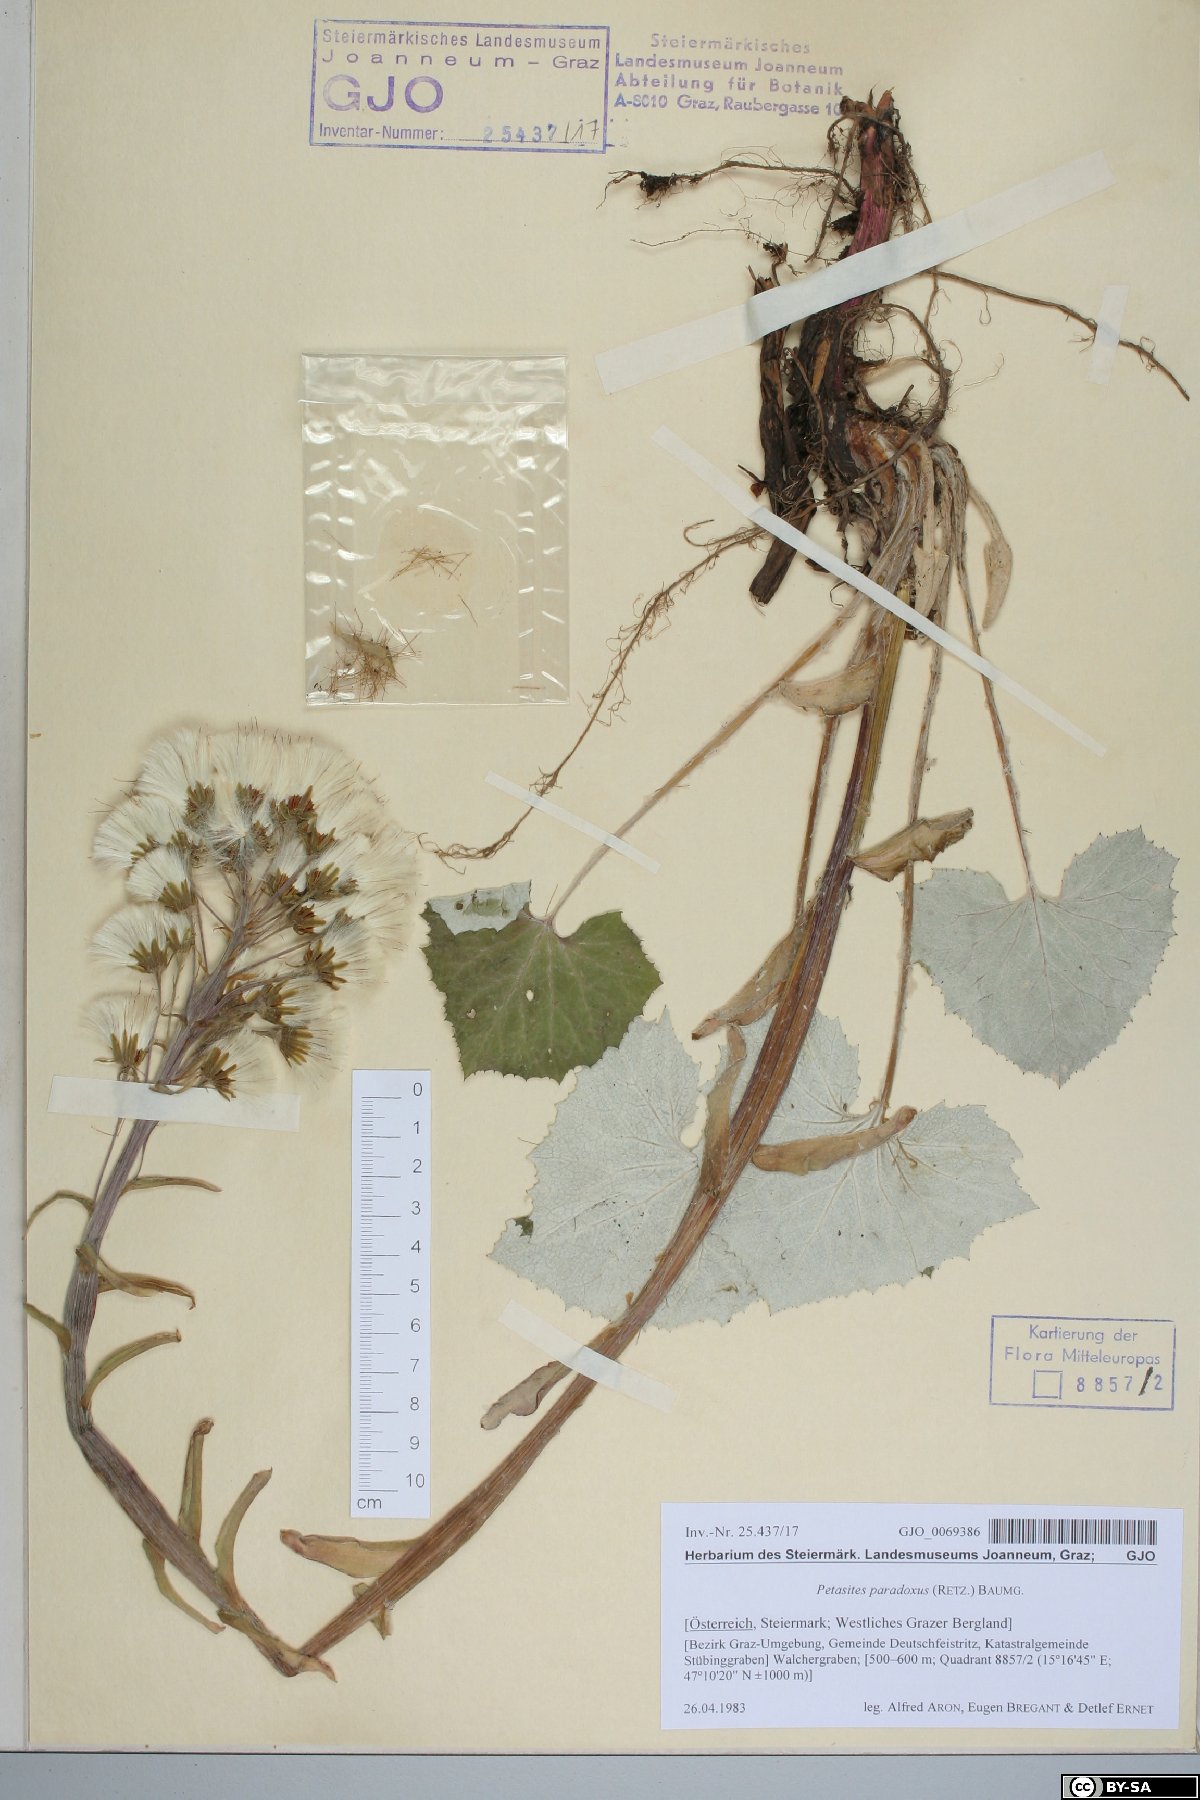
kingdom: Plantae
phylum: Tracheophyta
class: Magnoliopsida
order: Asterales
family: Asteraceae
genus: Petasites
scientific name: Petasites paradoxus
